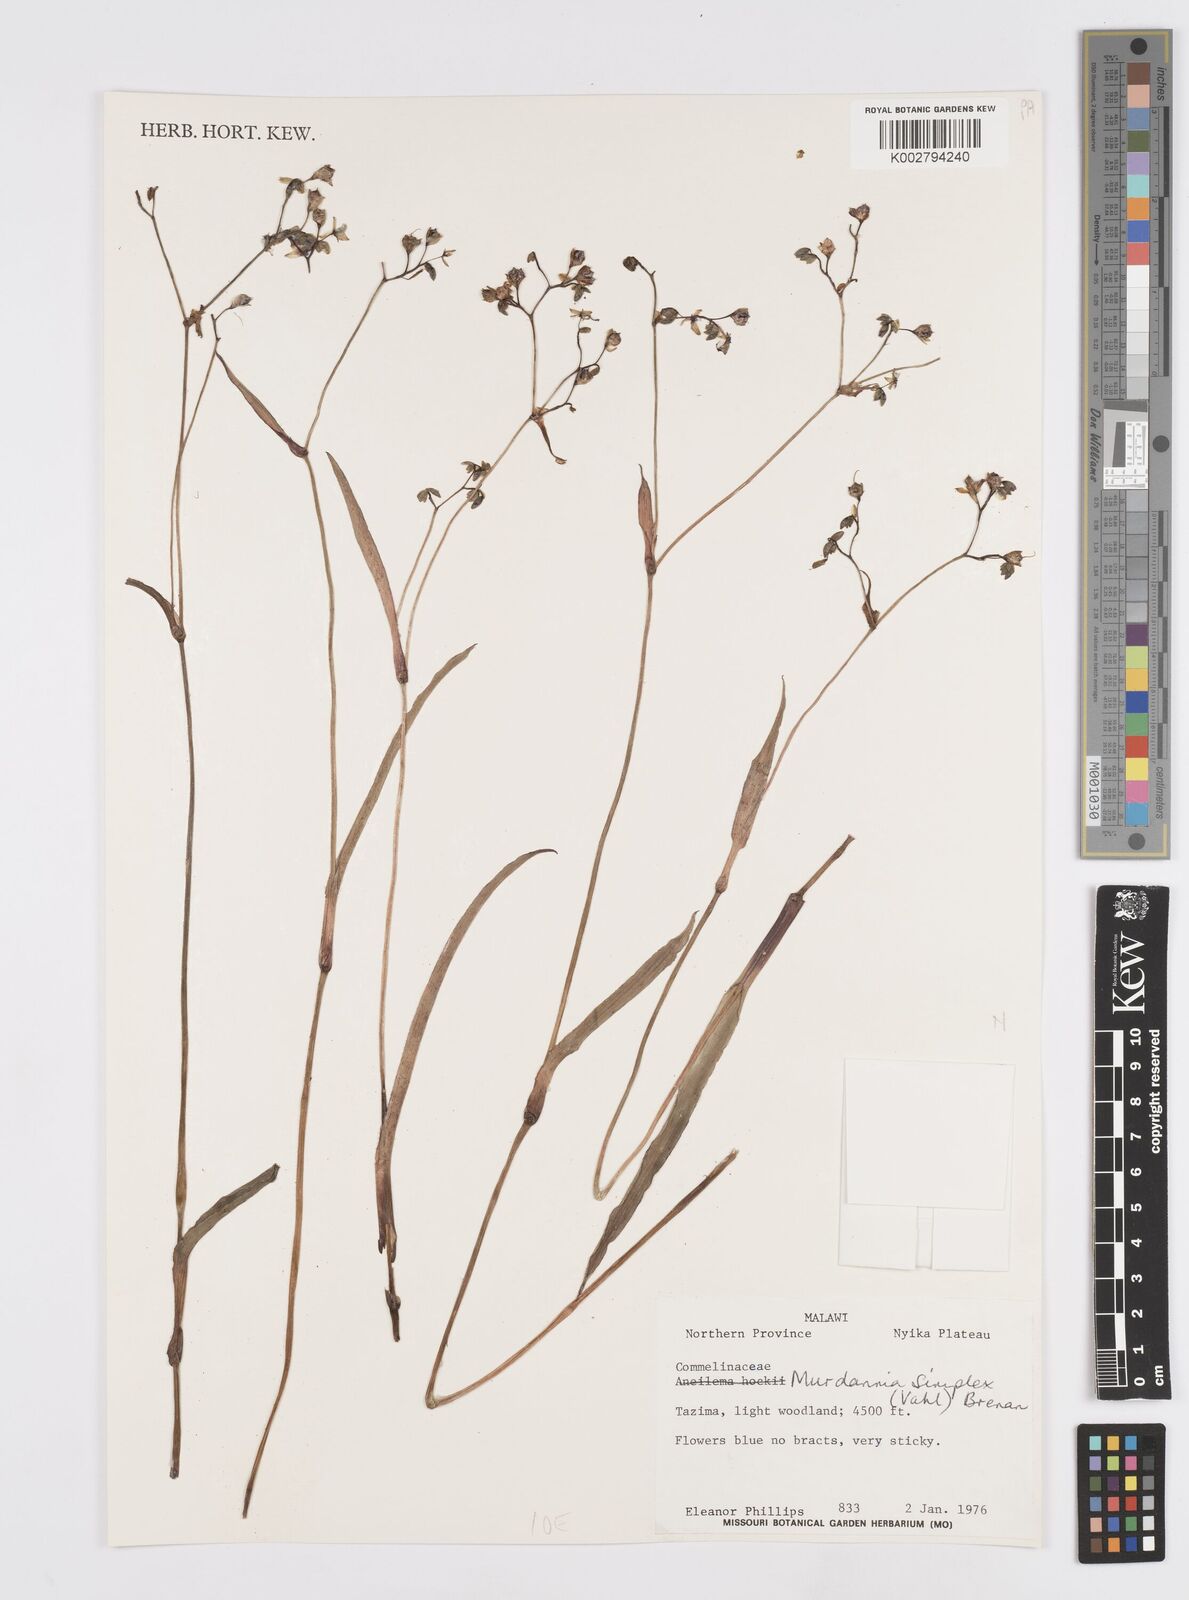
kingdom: Plantae
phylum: Tracheophyta
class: Liliopsida
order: Commelinales
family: Commelinaceae
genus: Murdannia
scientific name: Murdannia simplex
